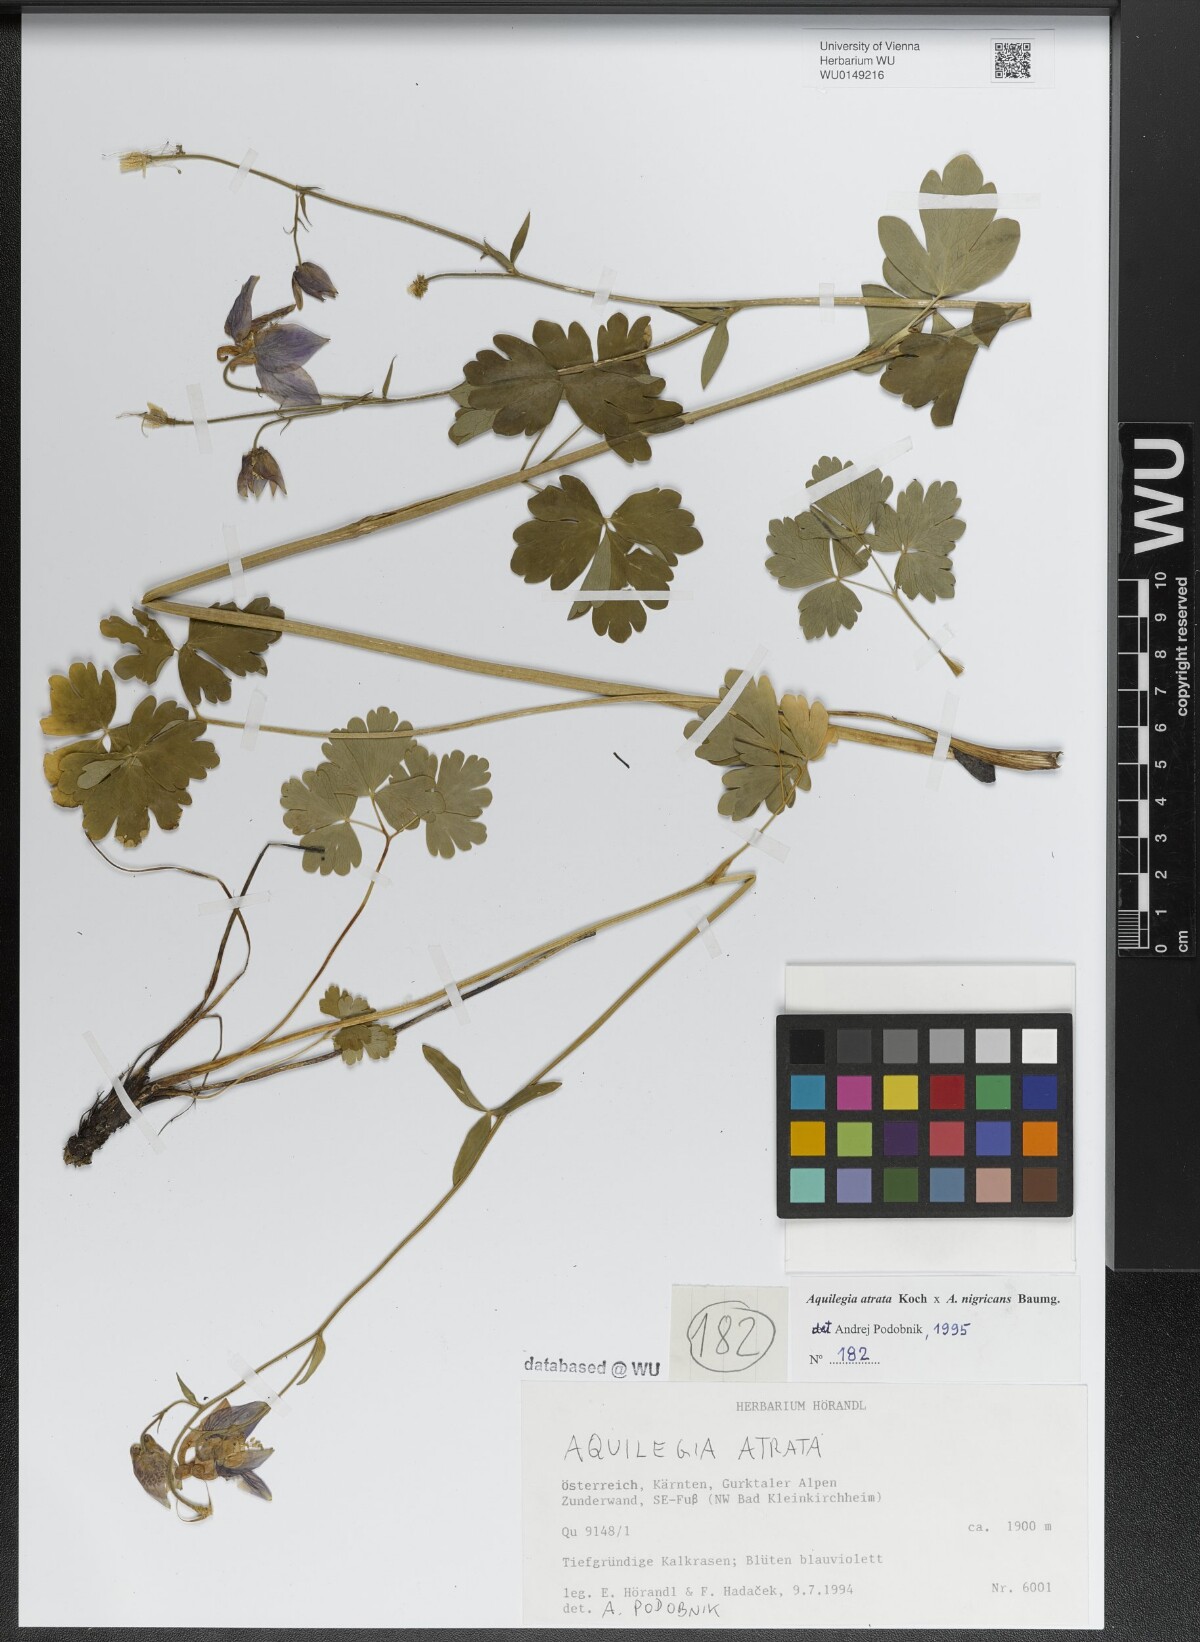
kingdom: Plantae
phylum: Tracheophyta
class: Magnoliopsida
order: Ranunculales
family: Ranunculaceae
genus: Aquilegia
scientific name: Aquilegia atrata
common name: Dark columbine
